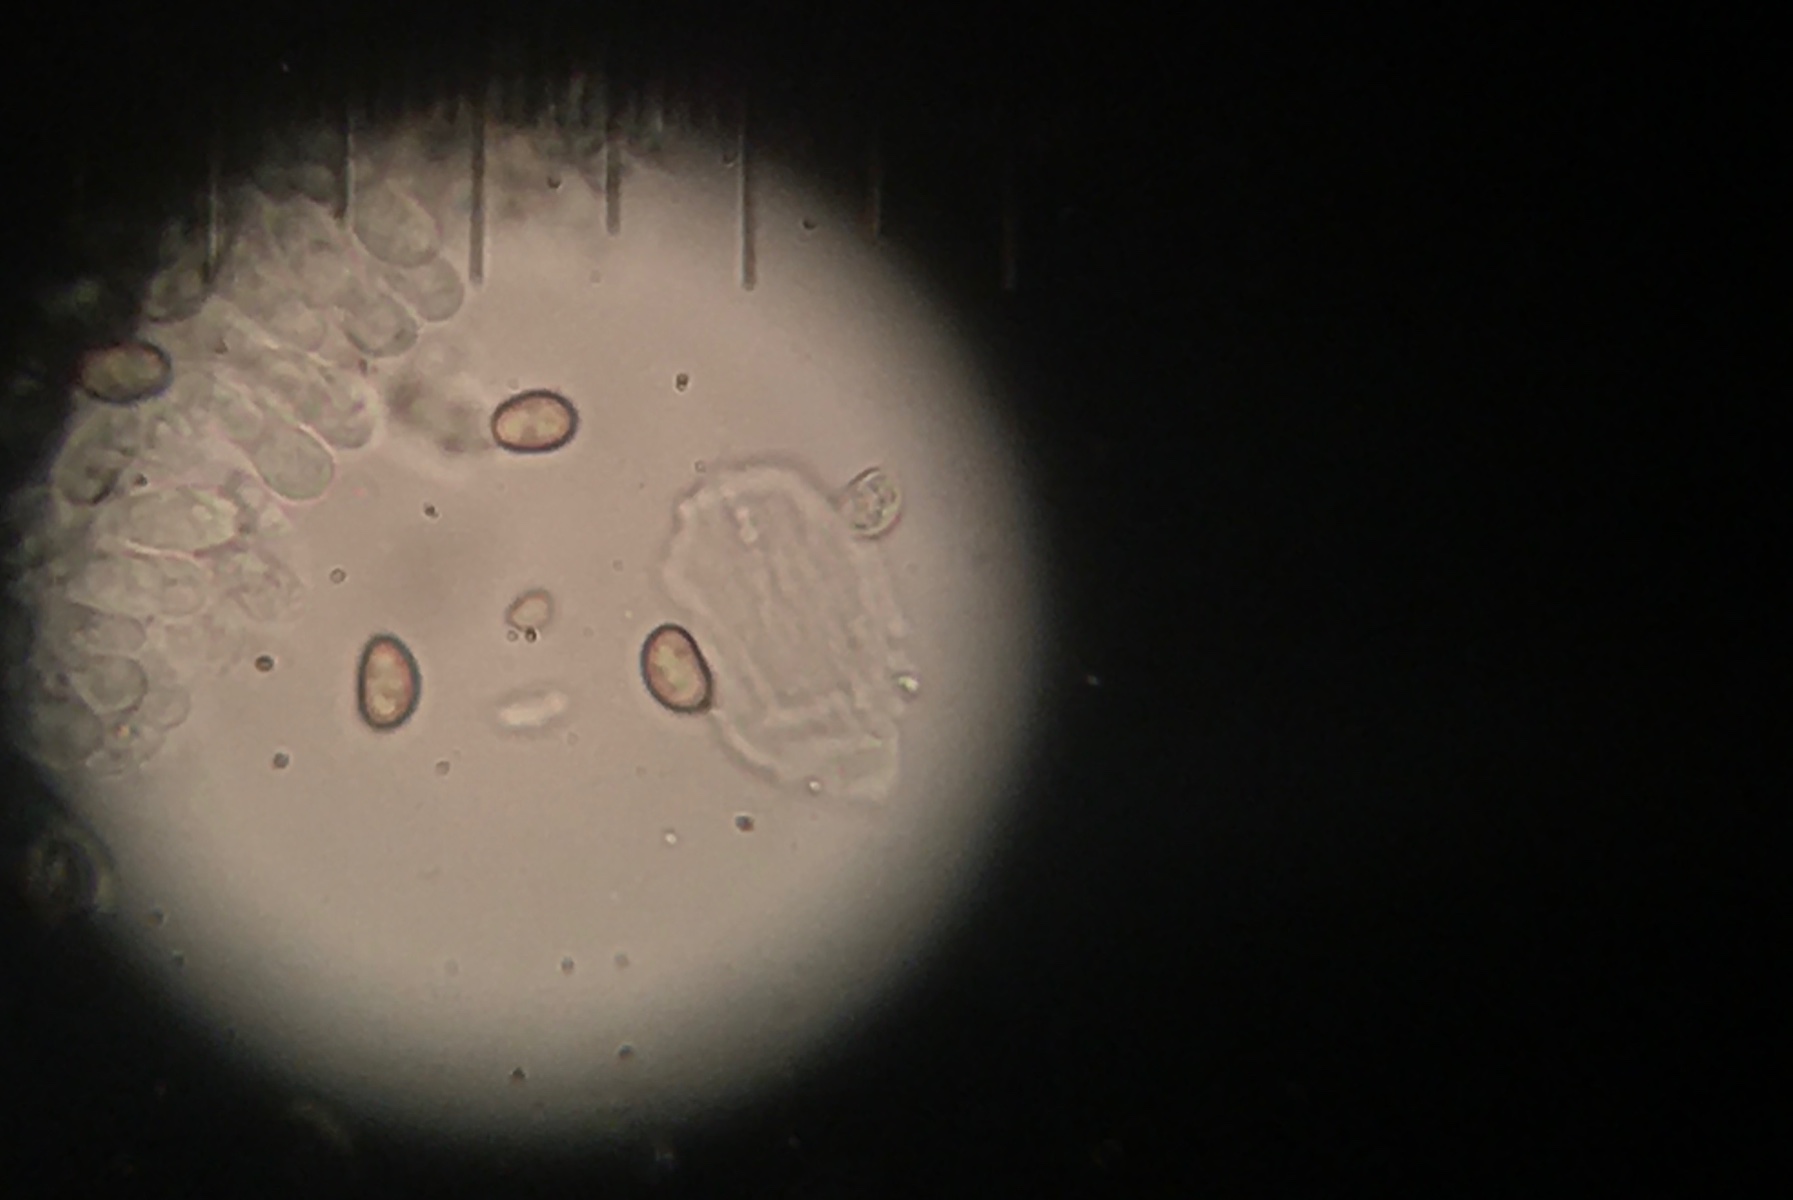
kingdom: Fungi
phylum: Basidiomycota
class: Agaricomycetes
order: Agaricales
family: Crepidotaceae
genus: Simocybe
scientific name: Simocybe haustellaris
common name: skæv skyggehat
